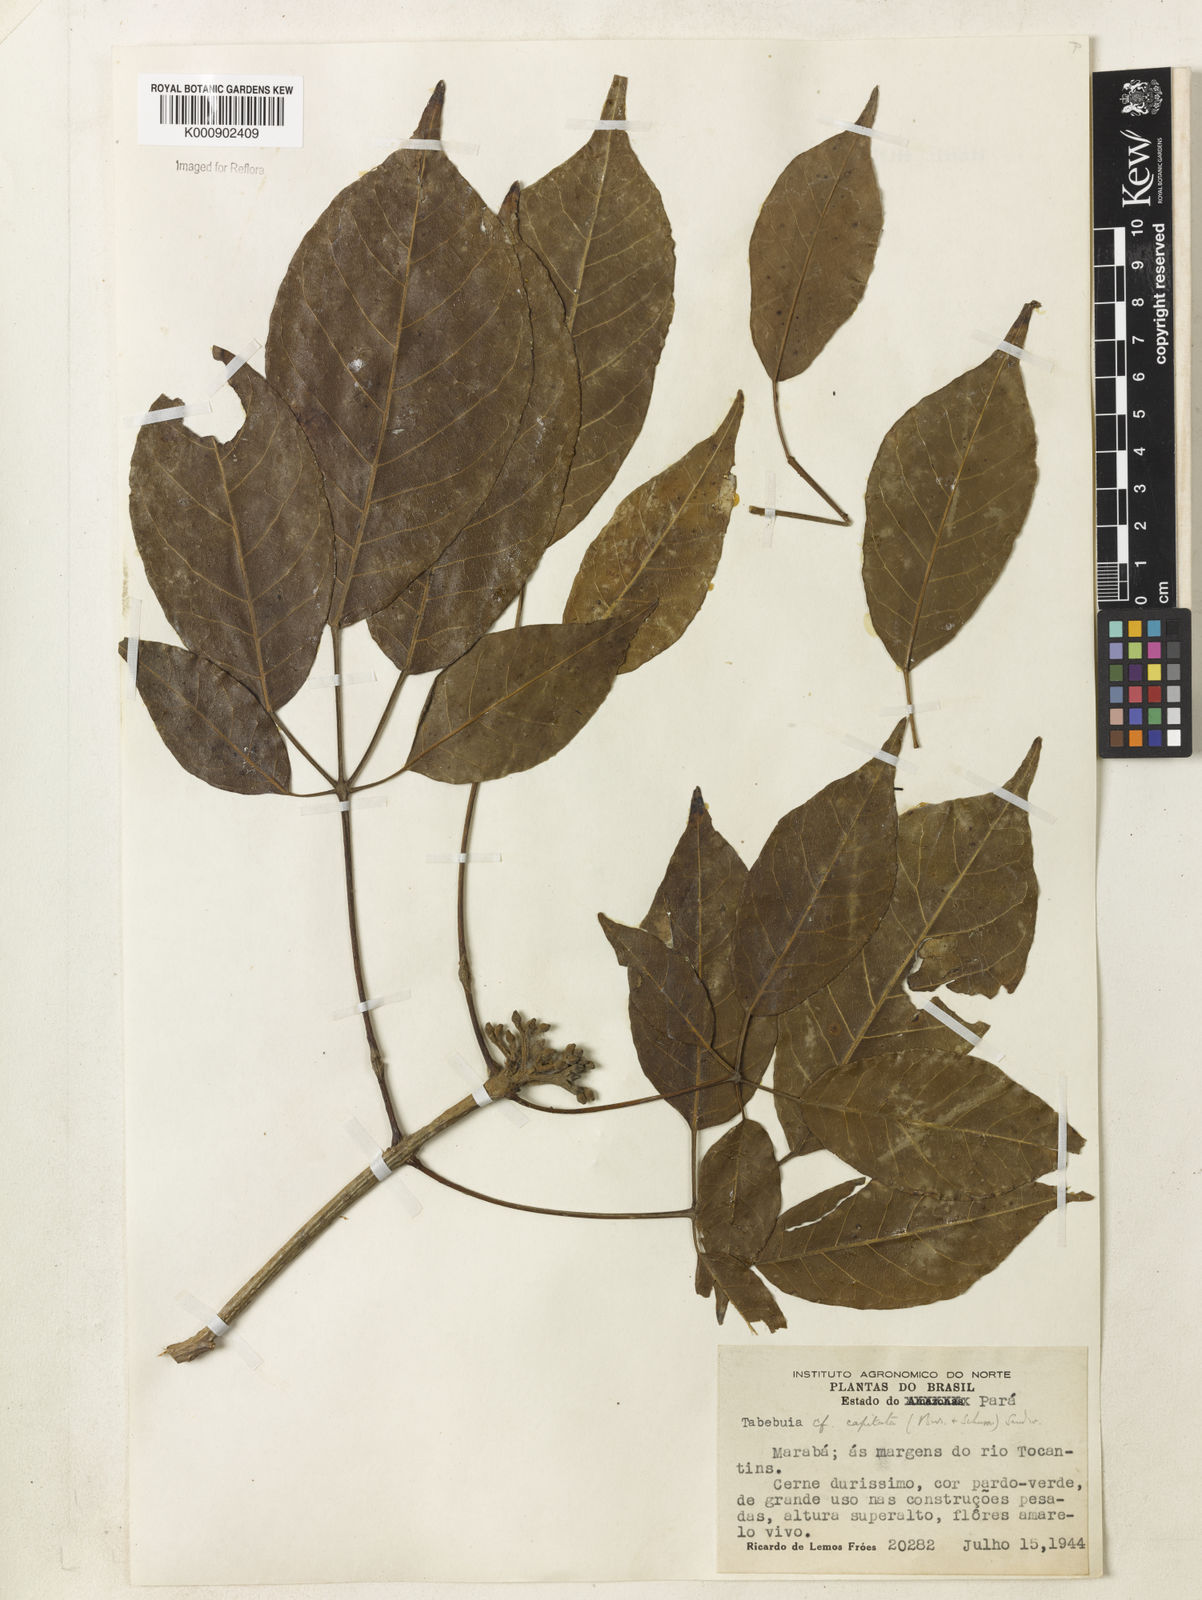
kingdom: Plantae
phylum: Tracheophyta
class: Magnoliopsida
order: Lamiales
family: Bignoniaceae
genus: Handroanthus
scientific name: Handroanthus capitatus
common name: Trumpet trees
